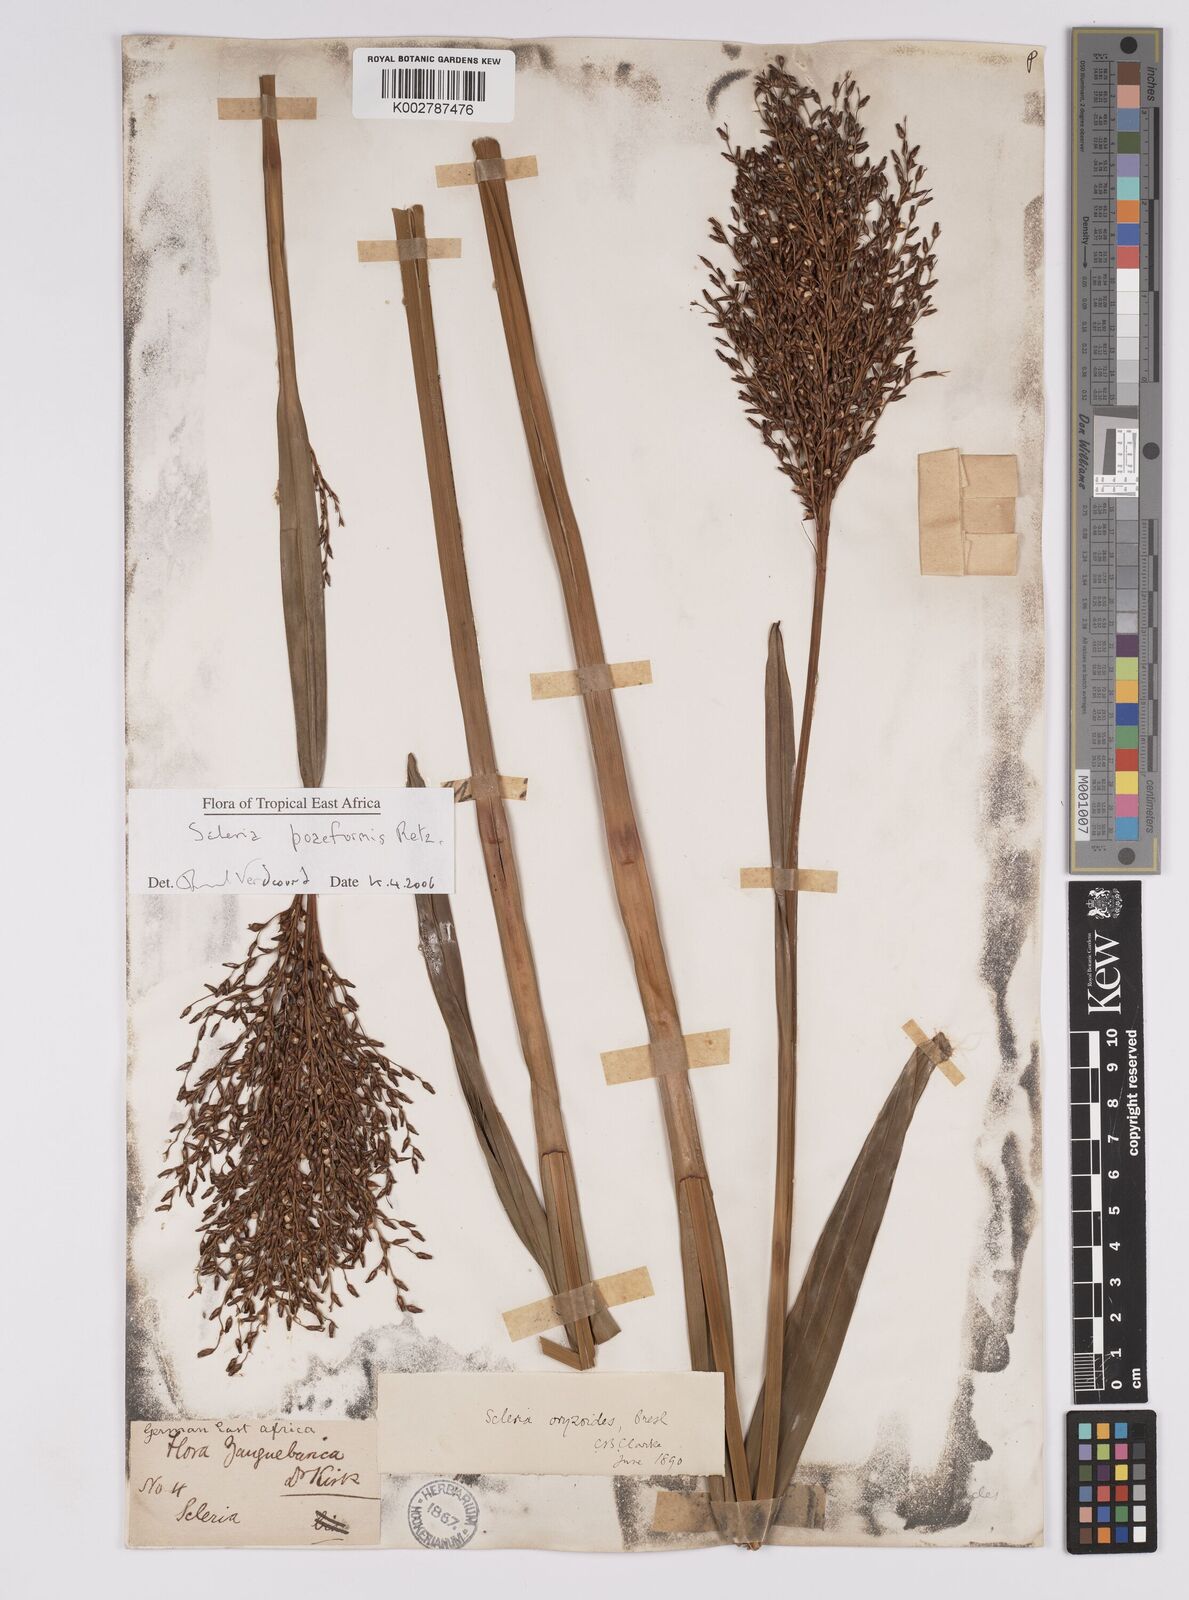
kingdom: Plantae
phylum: Tracheophyta
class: Liliopsida
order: Poales
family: Cyperaceae
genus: Scleria
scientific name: Scleria poiformis
